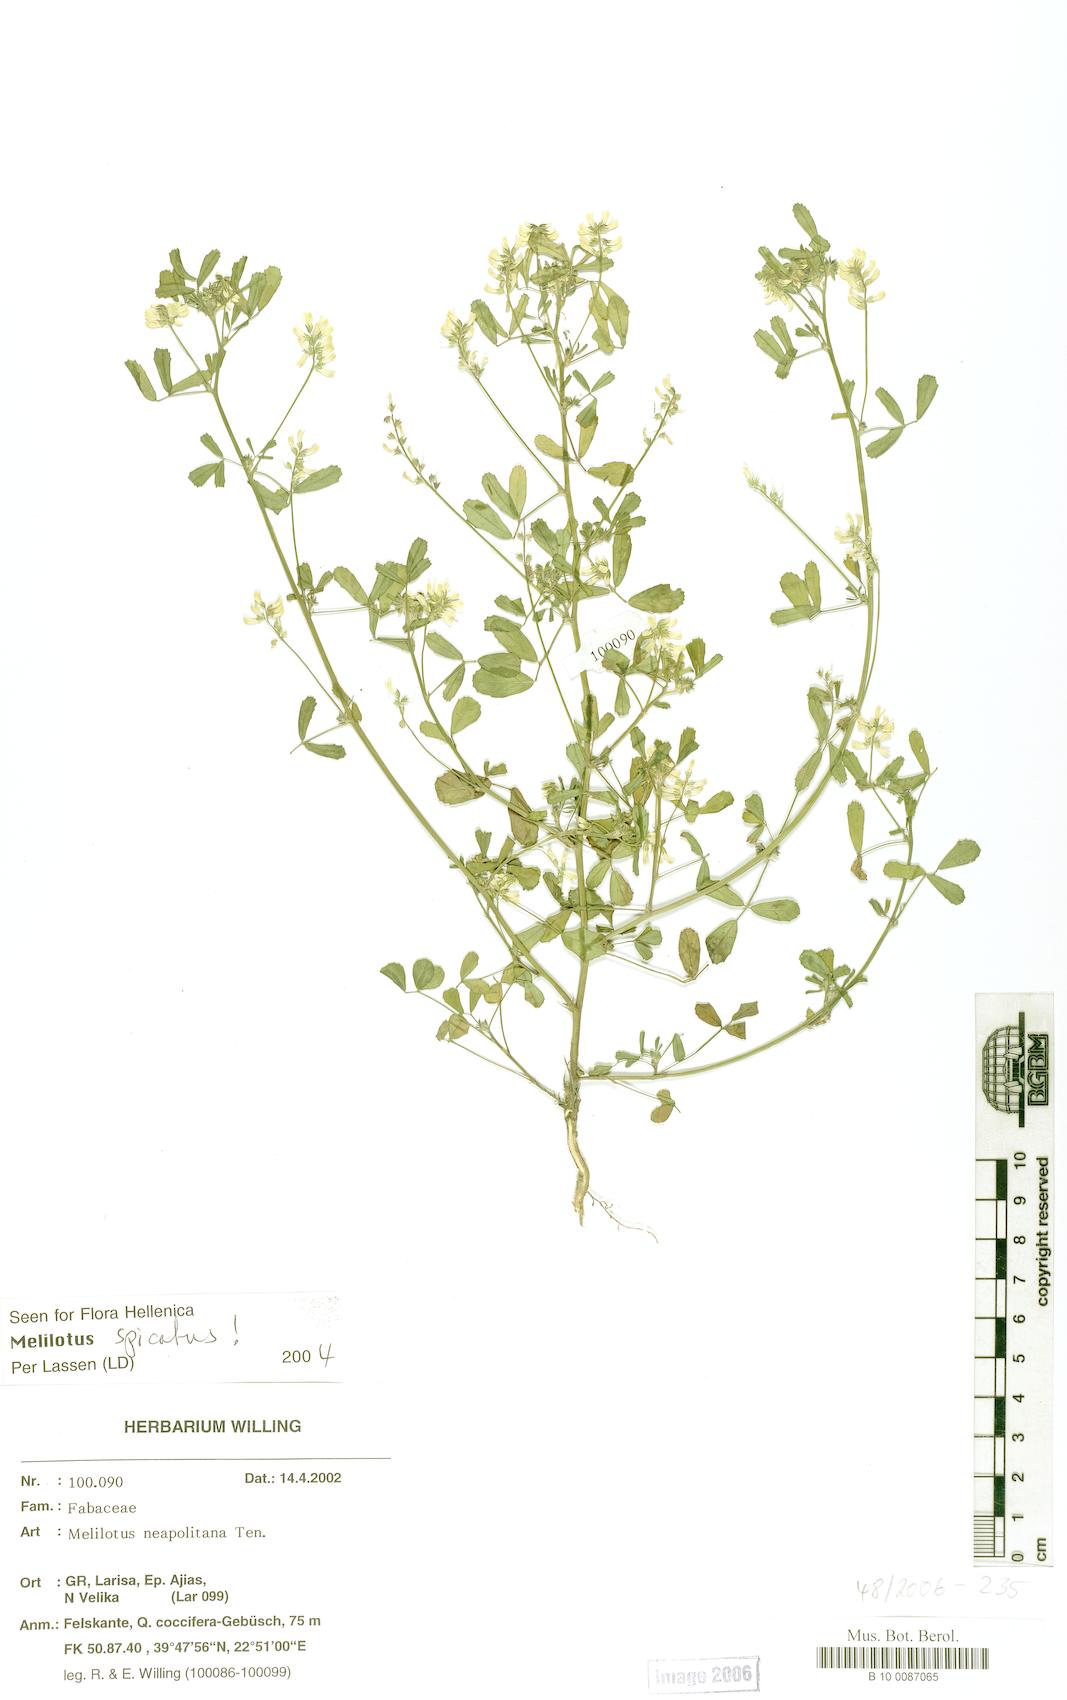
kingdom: Plantae
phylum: Tracheophyta
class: Magnoliopsida
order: Fabales
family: Fabaceae
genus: Melilotus
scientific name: Melilotus neapolitanus
